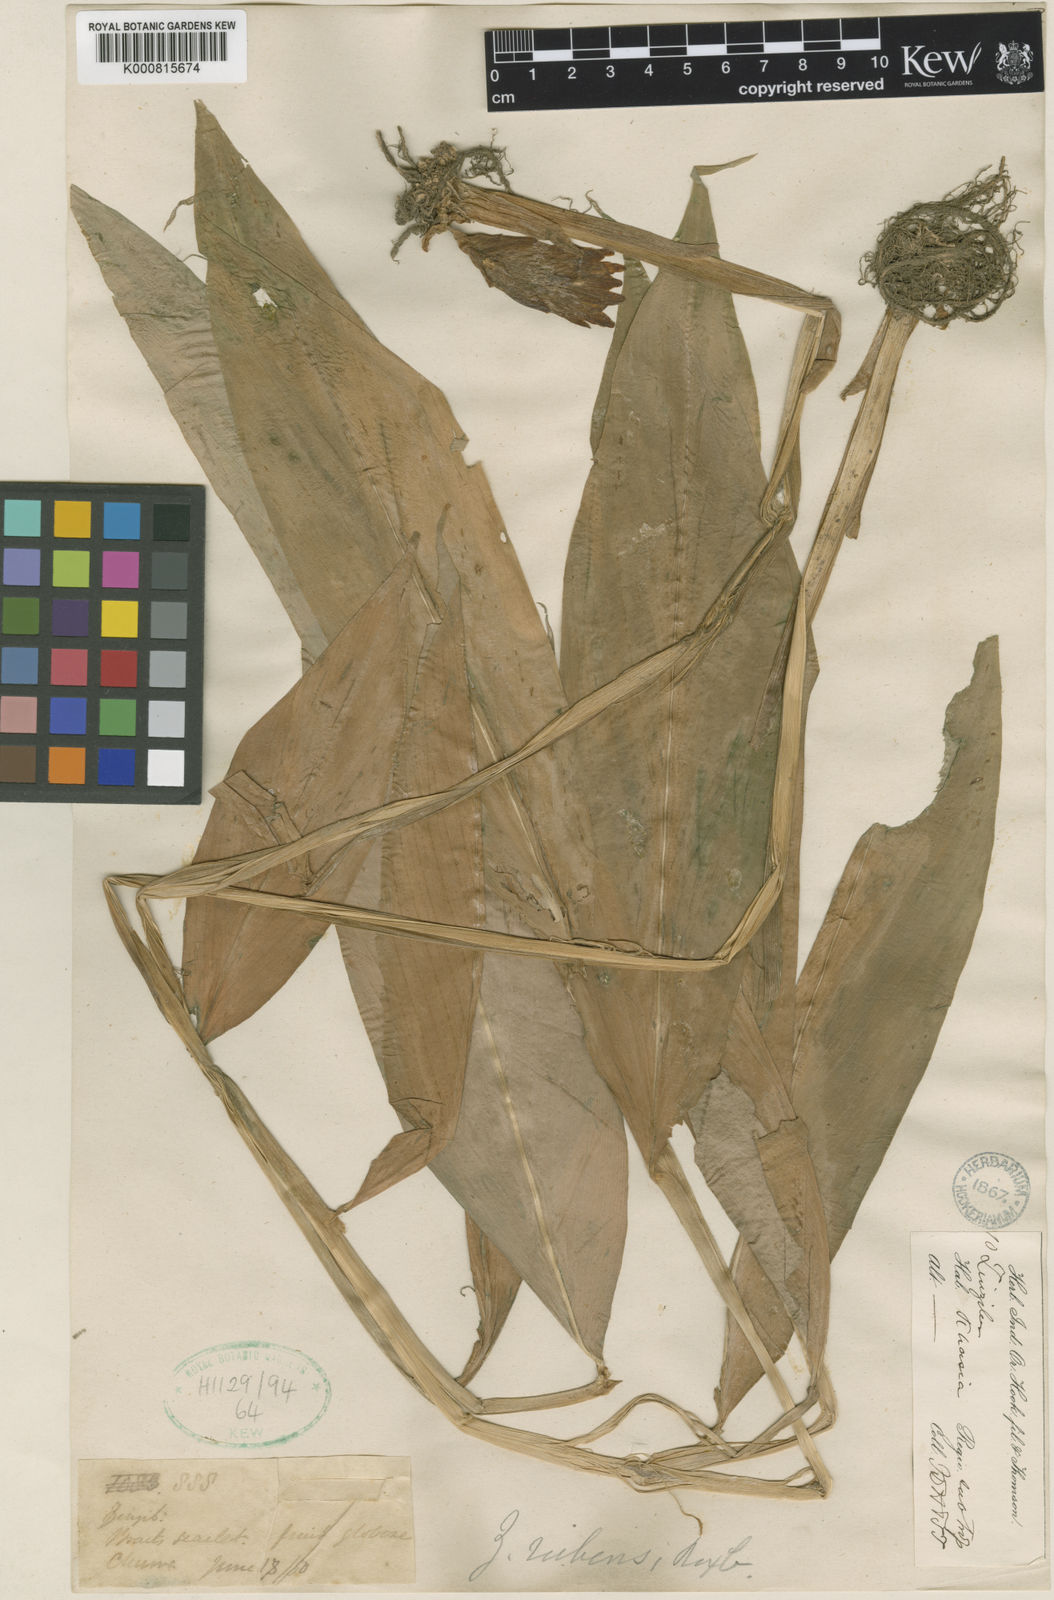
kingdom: Plantae
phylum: Tracheophyta
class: Liliopsida
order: Zingiberales
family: Zingiberaceae
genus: Zingiber
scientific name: Zingiber rubens
